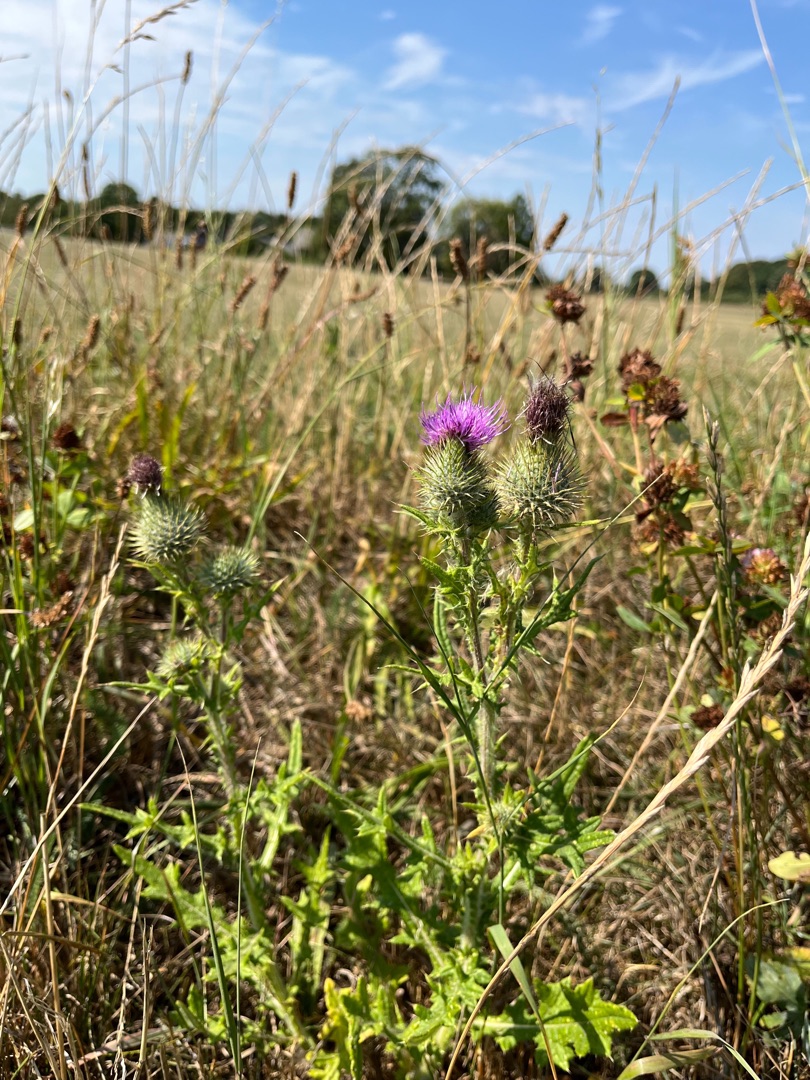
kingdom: Plantae
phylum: Tracheophyta
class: Magnoliopsida
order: Asterales
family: Asteraceae
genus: Cirsium
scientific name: Cirsium vulgare
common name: Horse-tidsel
